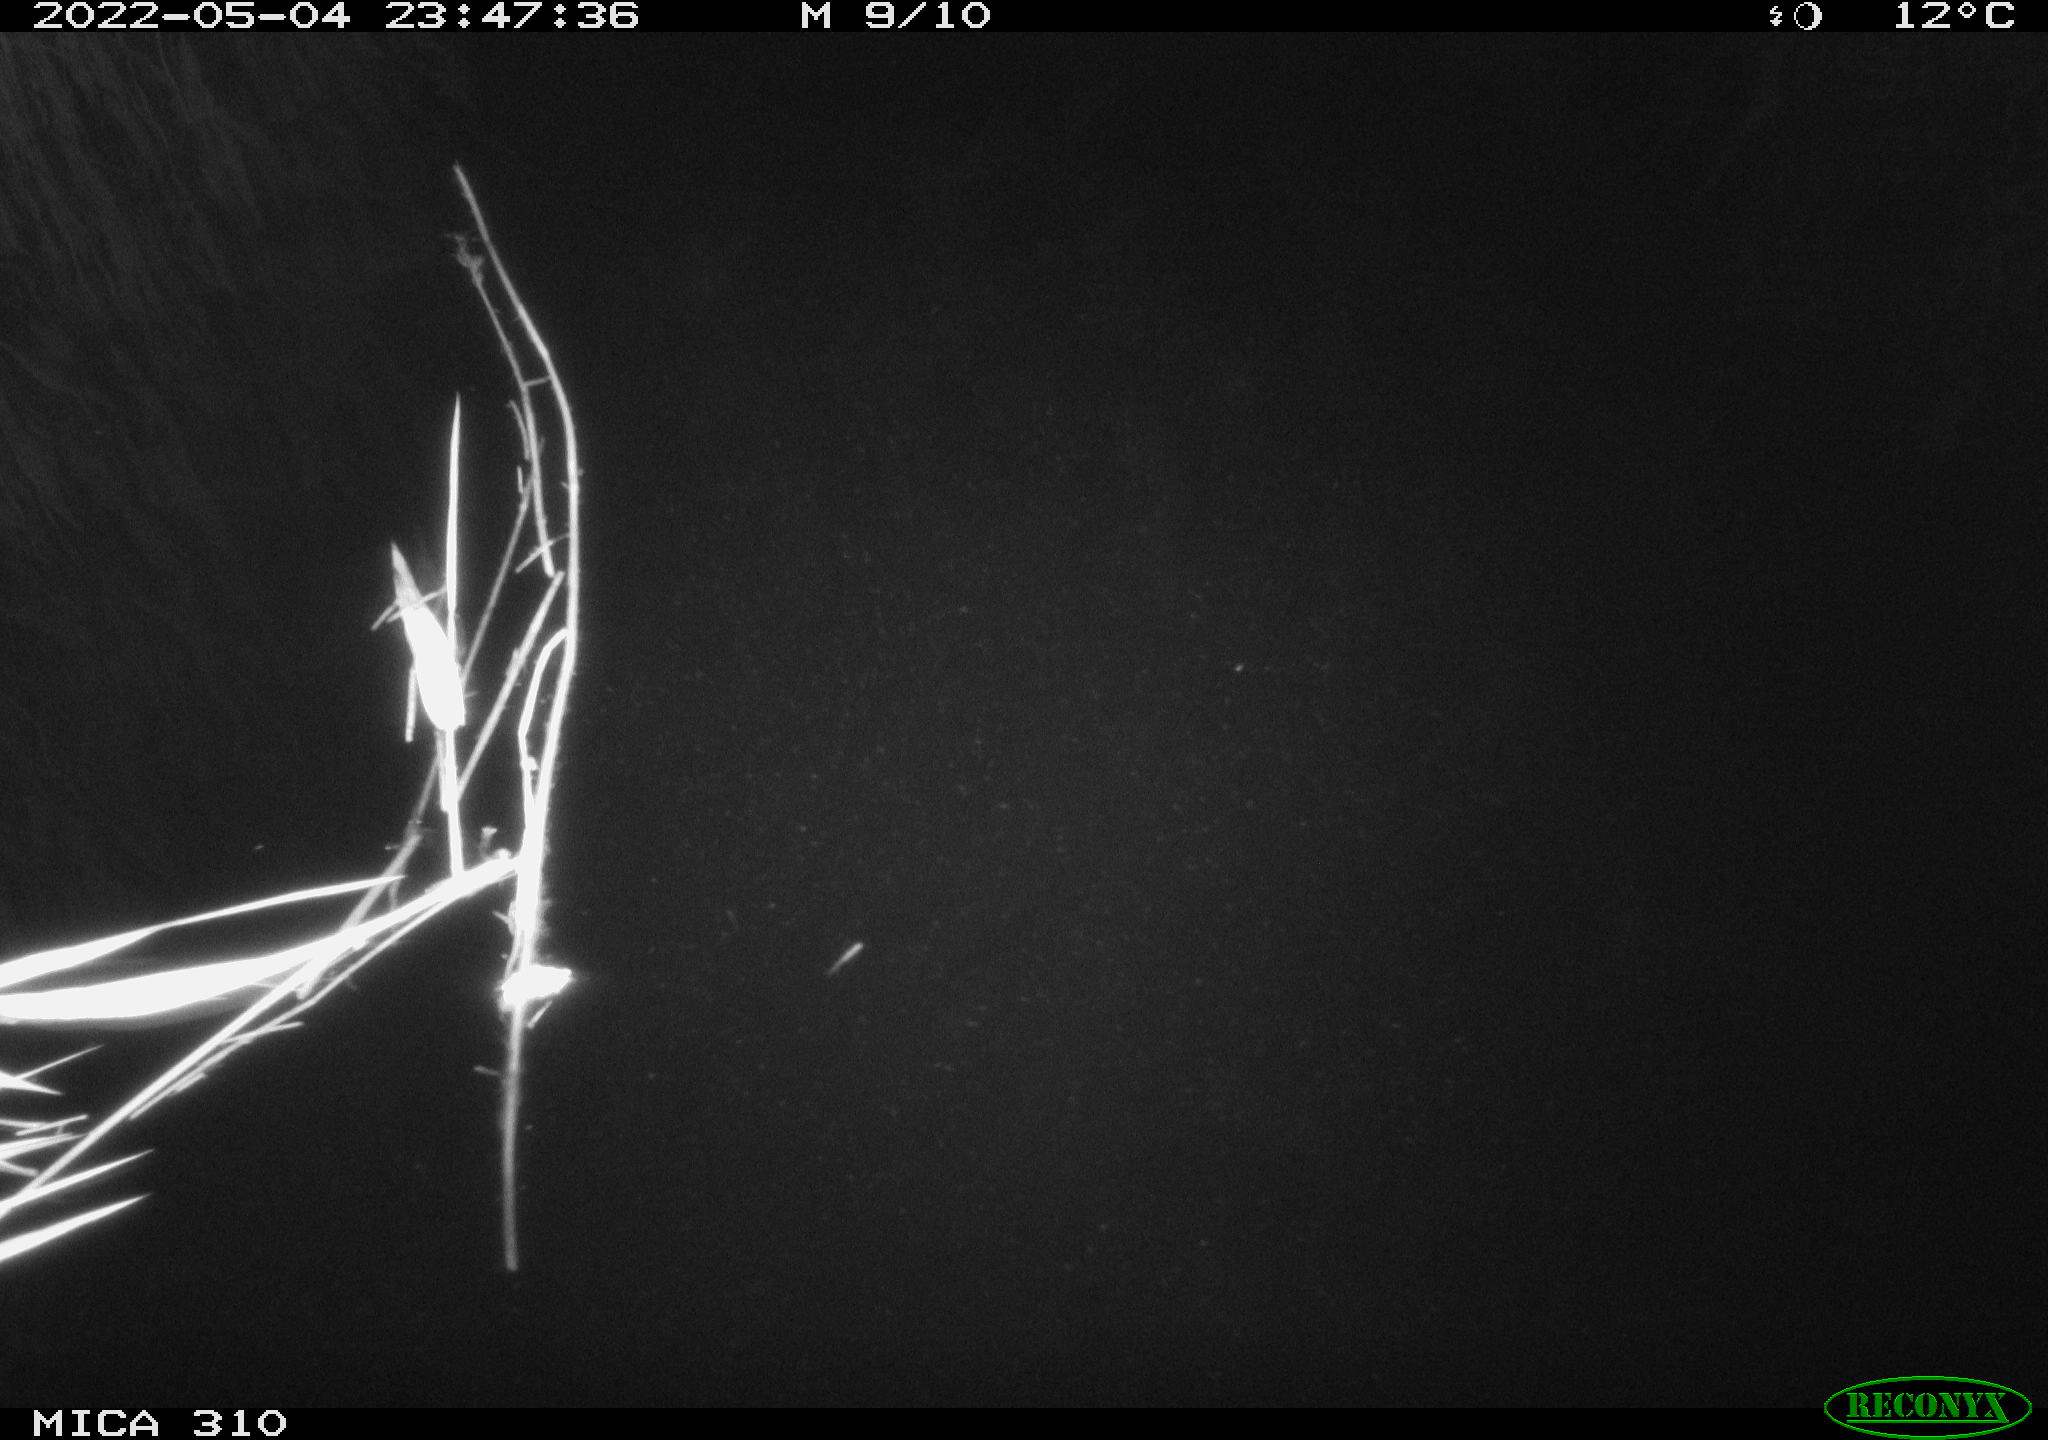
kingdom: Animalia
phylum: Chordata
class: Aves
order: Anseriformes
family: Anatidae
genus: Anas
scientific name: Anas platyrhynchos
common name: Mallard
